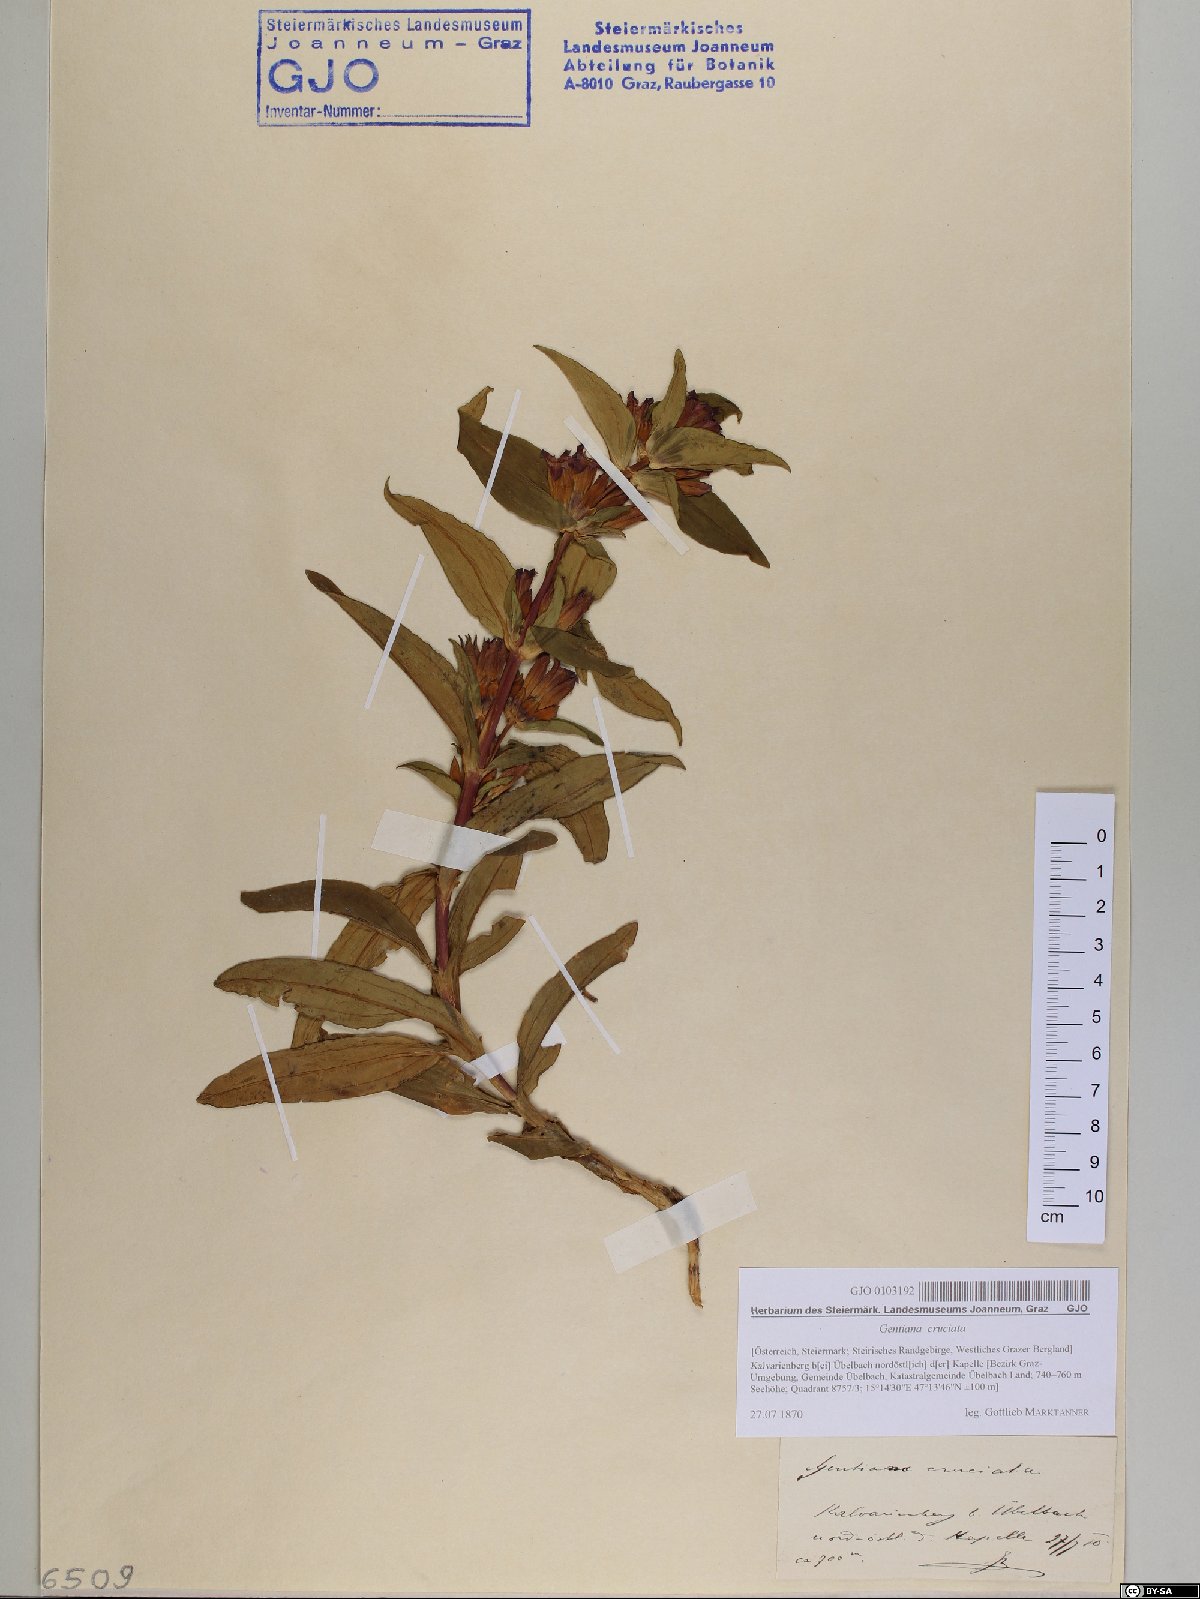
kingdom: Plantae
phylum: Tracheophyta
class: Magnoliopsida
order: Gentianales
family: Gentianaceae
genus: Gentiana
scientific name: Gentiana cruciata
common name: Cross gentian
